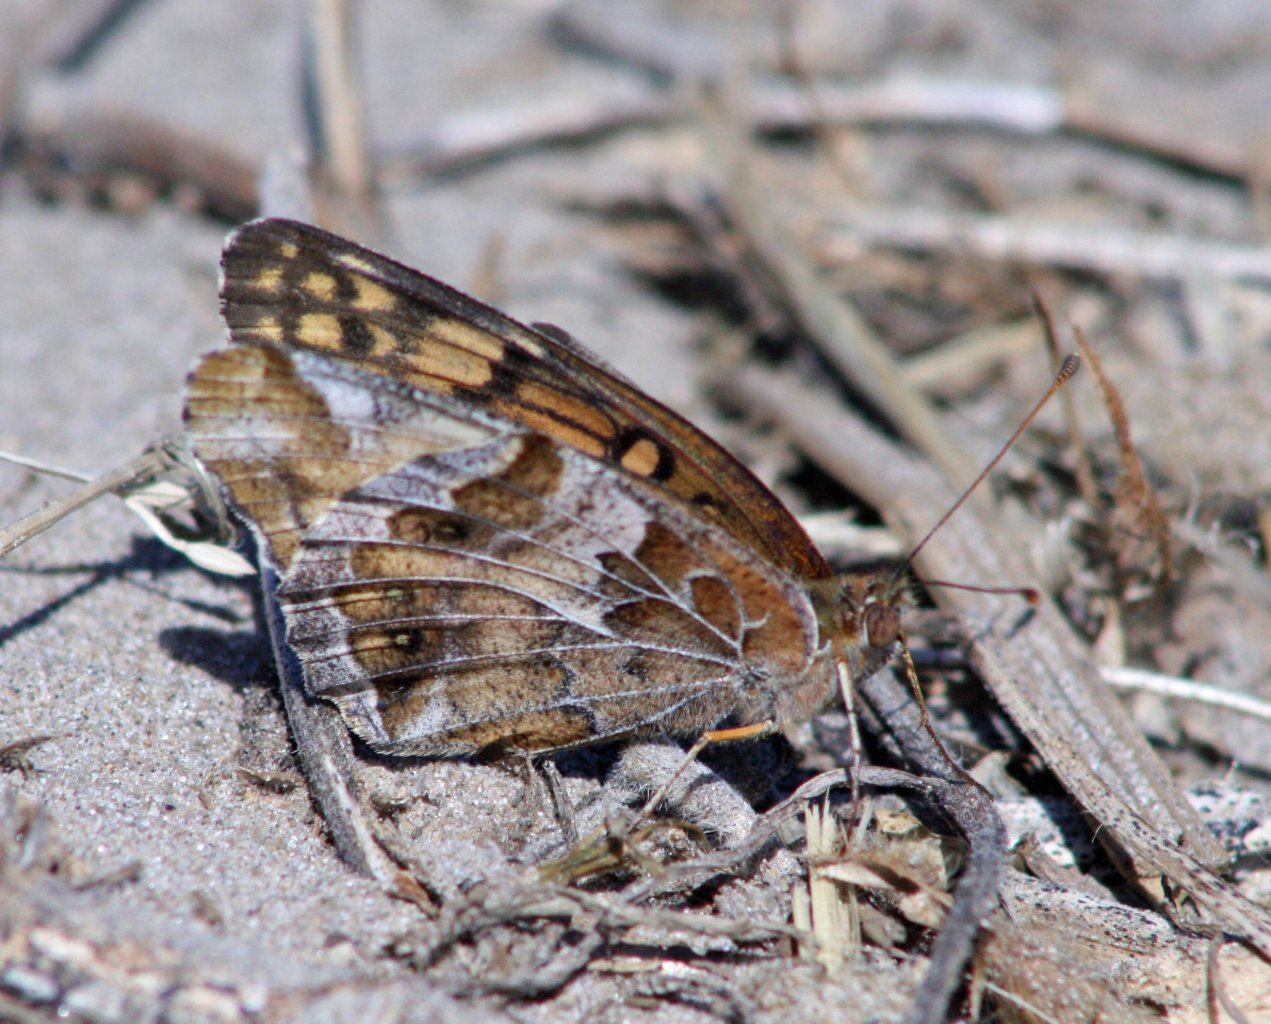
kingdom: Animalia
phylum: Arthropoda
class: Insecta
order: Lepidoptera
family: Nymphalidae
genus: Euptoieta
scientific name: Euptoieta claudia
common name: Variegated Fritillary
